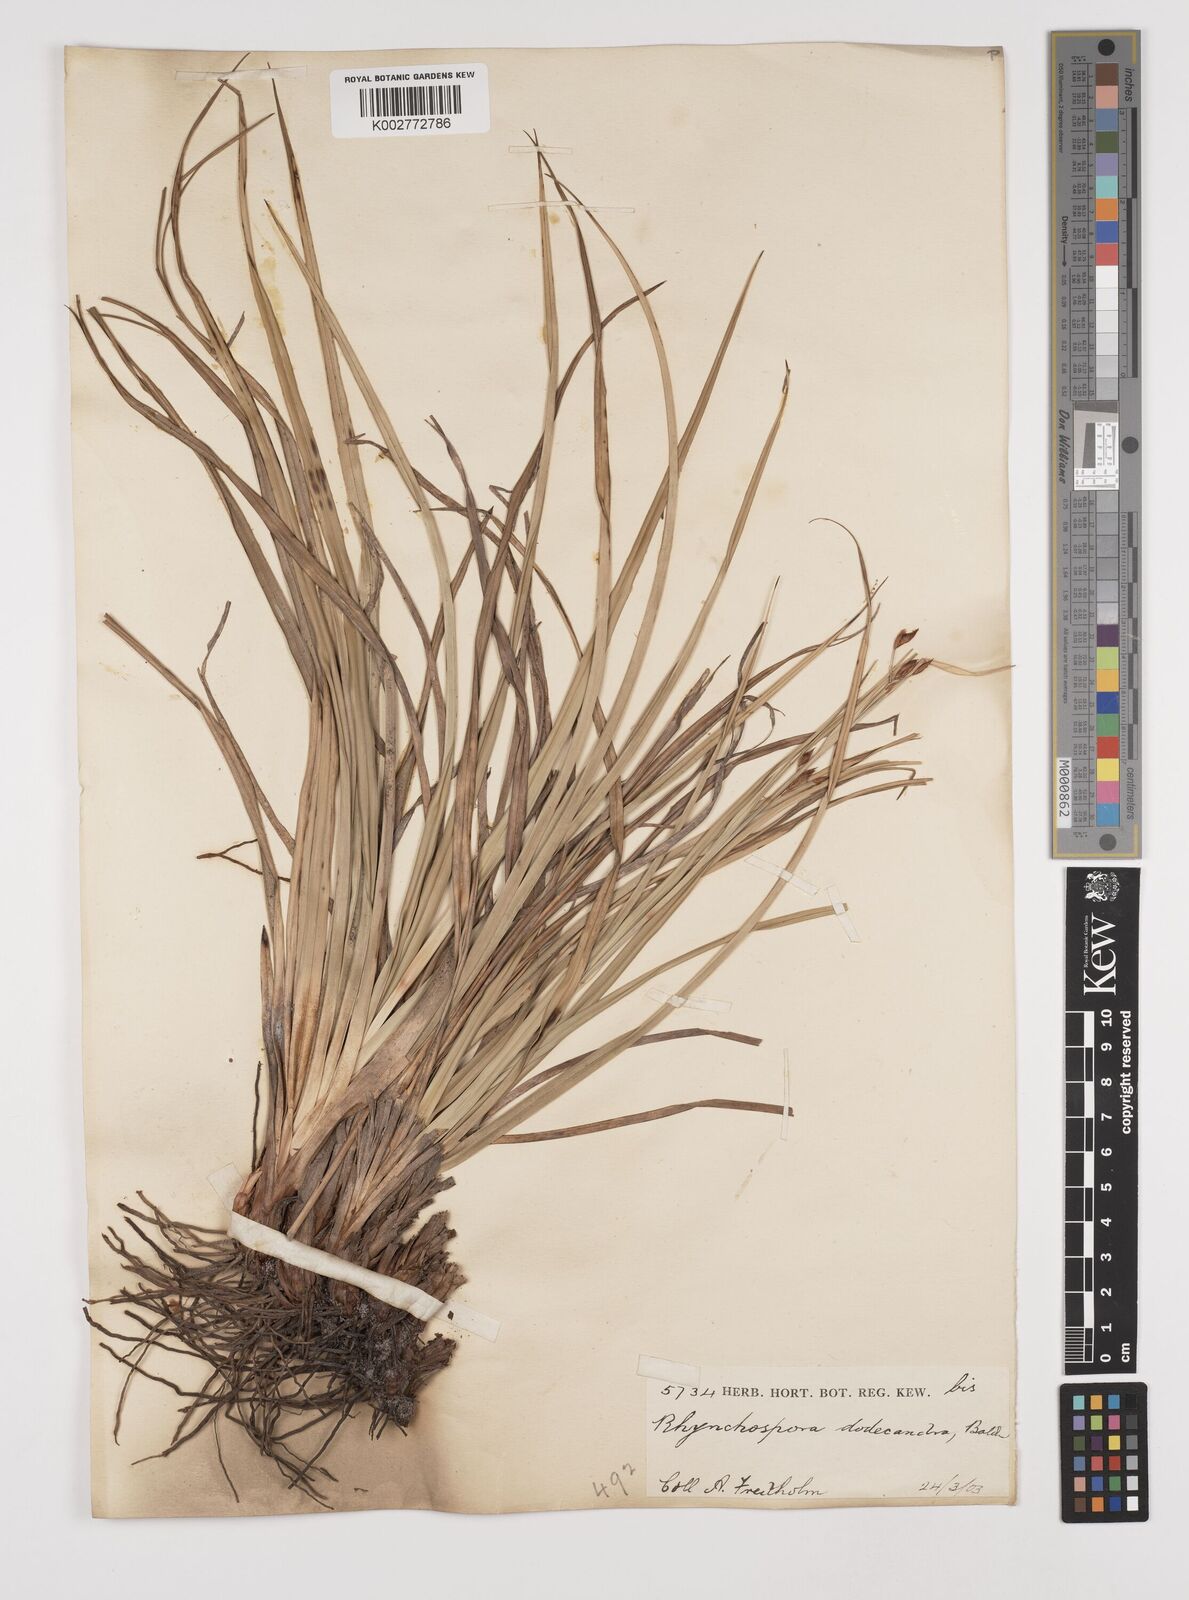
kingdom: Plantae
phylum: Tracheophyta
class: Liliopsida
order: Poales
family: Cyperaceae
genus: Rhynchospora
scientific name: Rhynchospora megalocarpa
